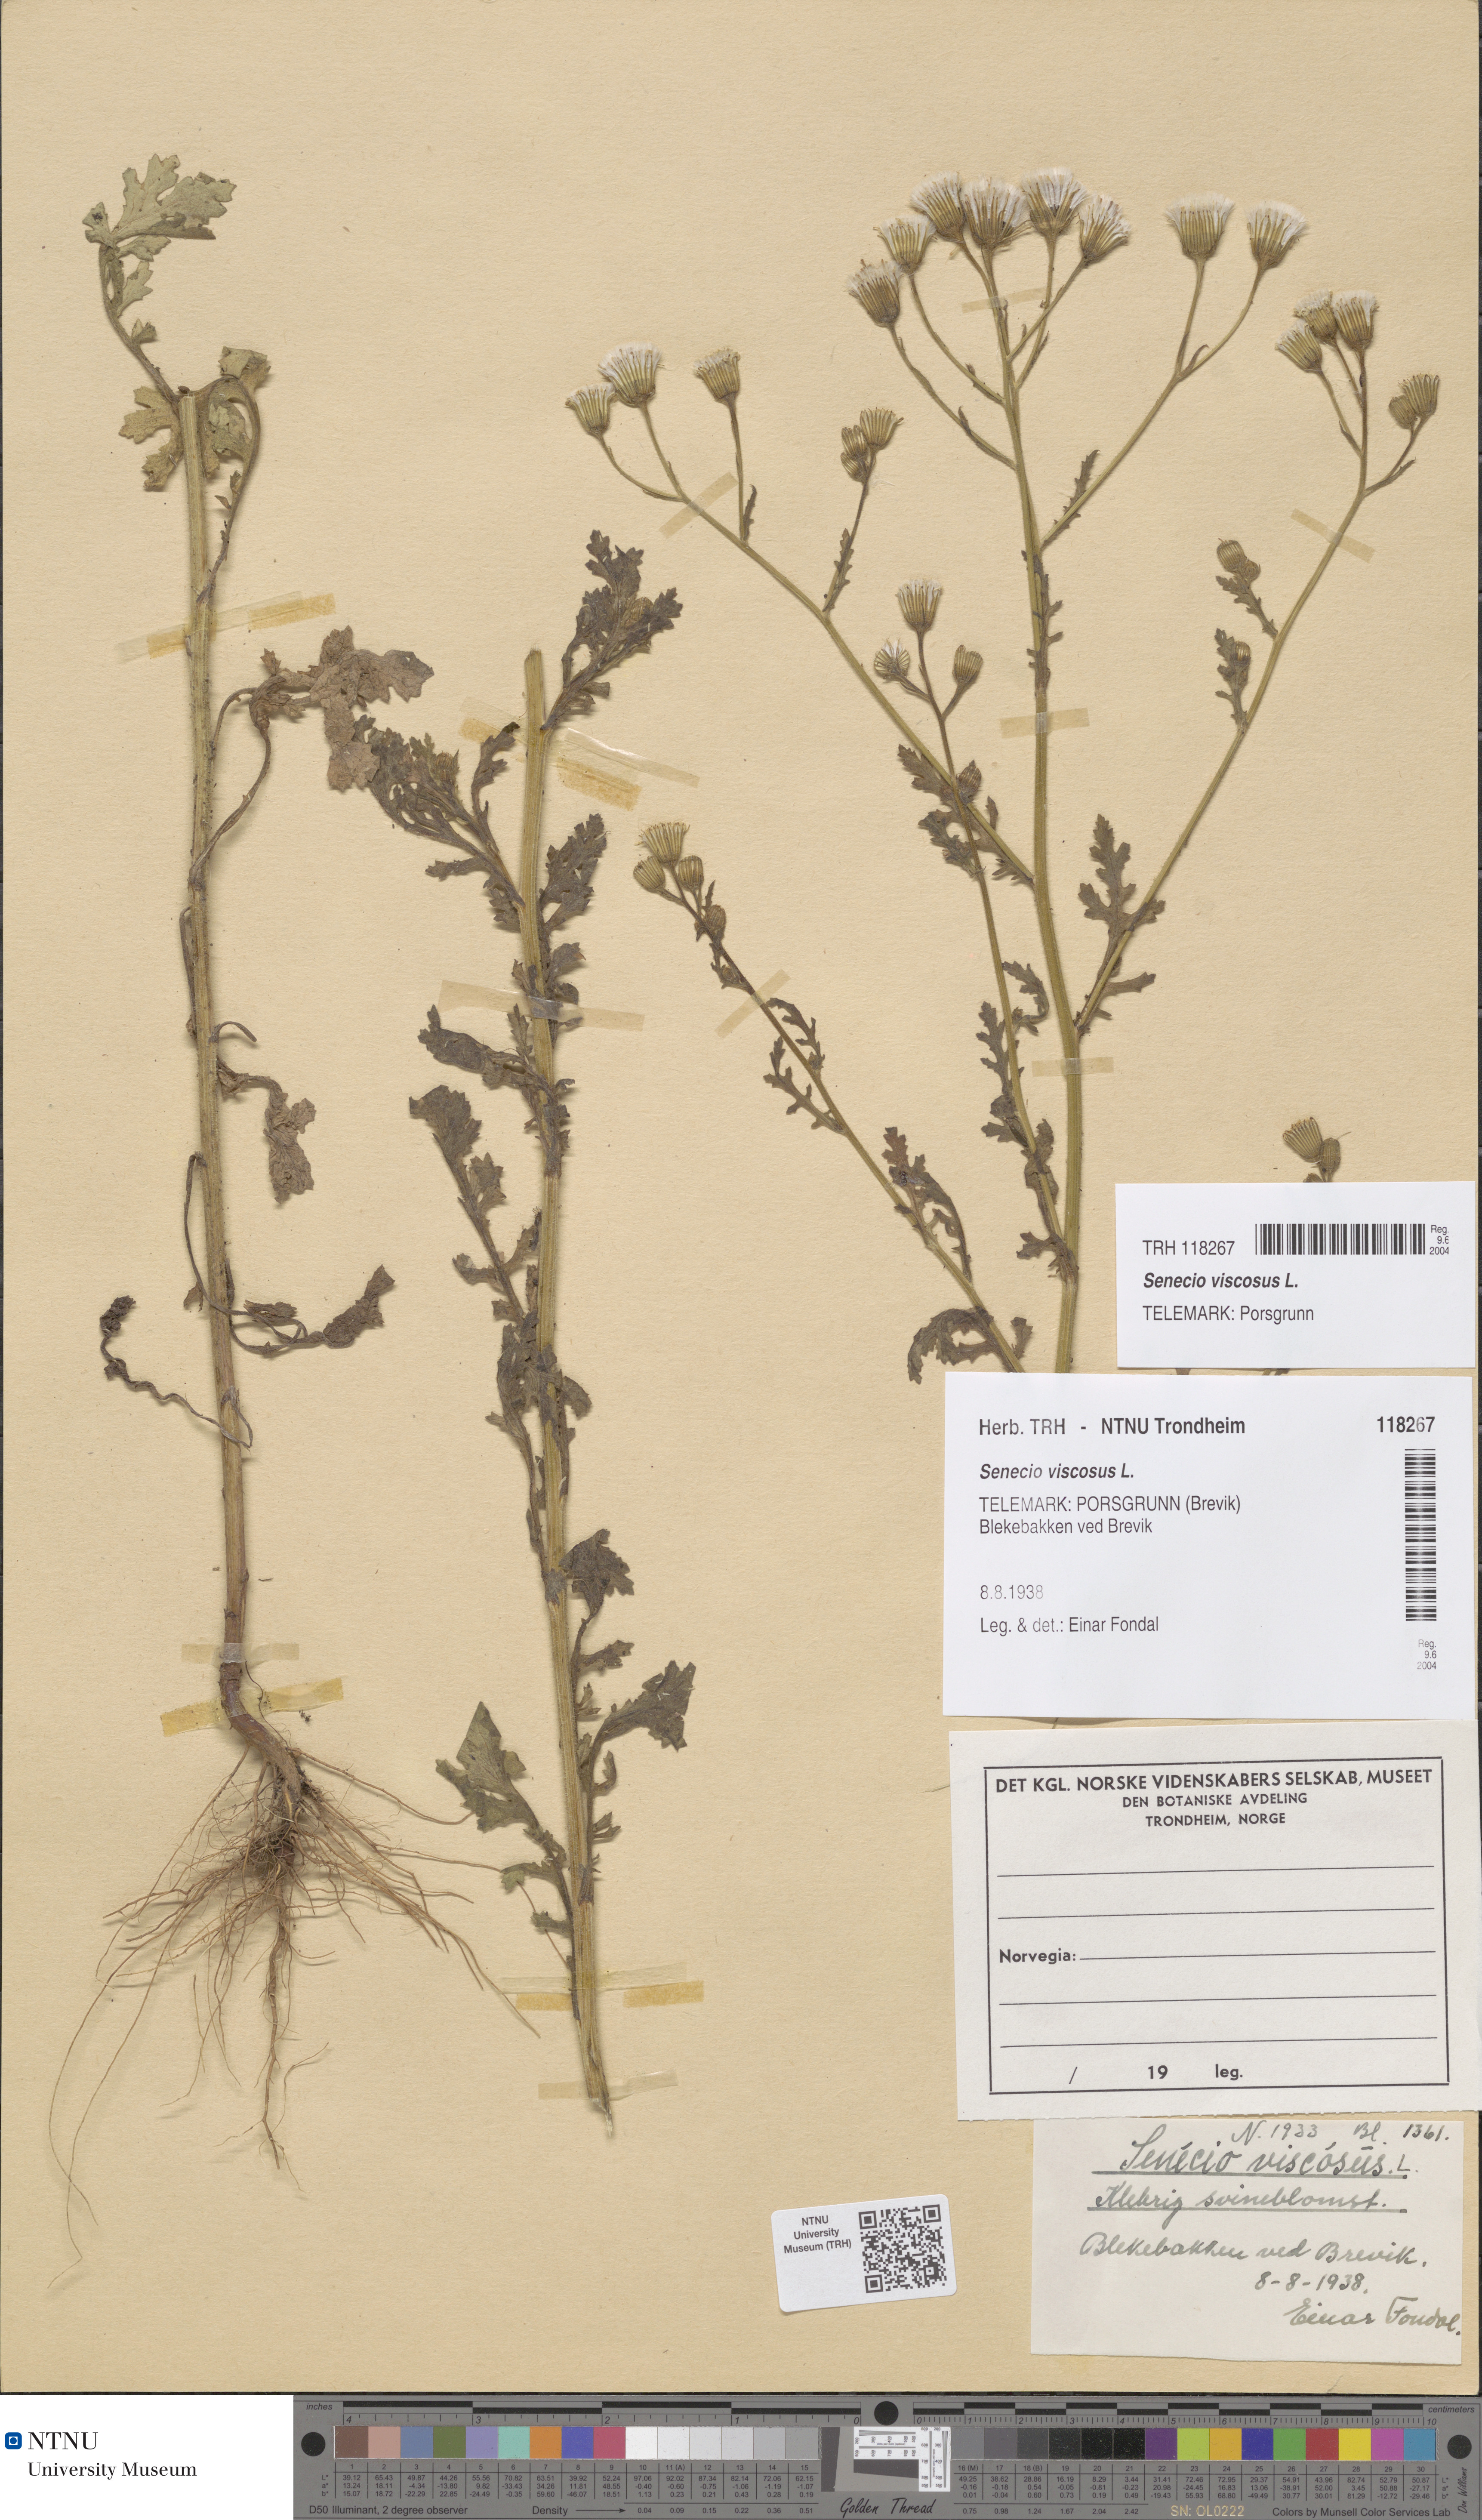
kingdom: Plantae
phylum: Tracheophyta
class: Magnoliopsida
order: Asterales
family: Asteraceae
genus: Senecio
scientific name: Senecio viscosus
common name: Sticky groundsel
